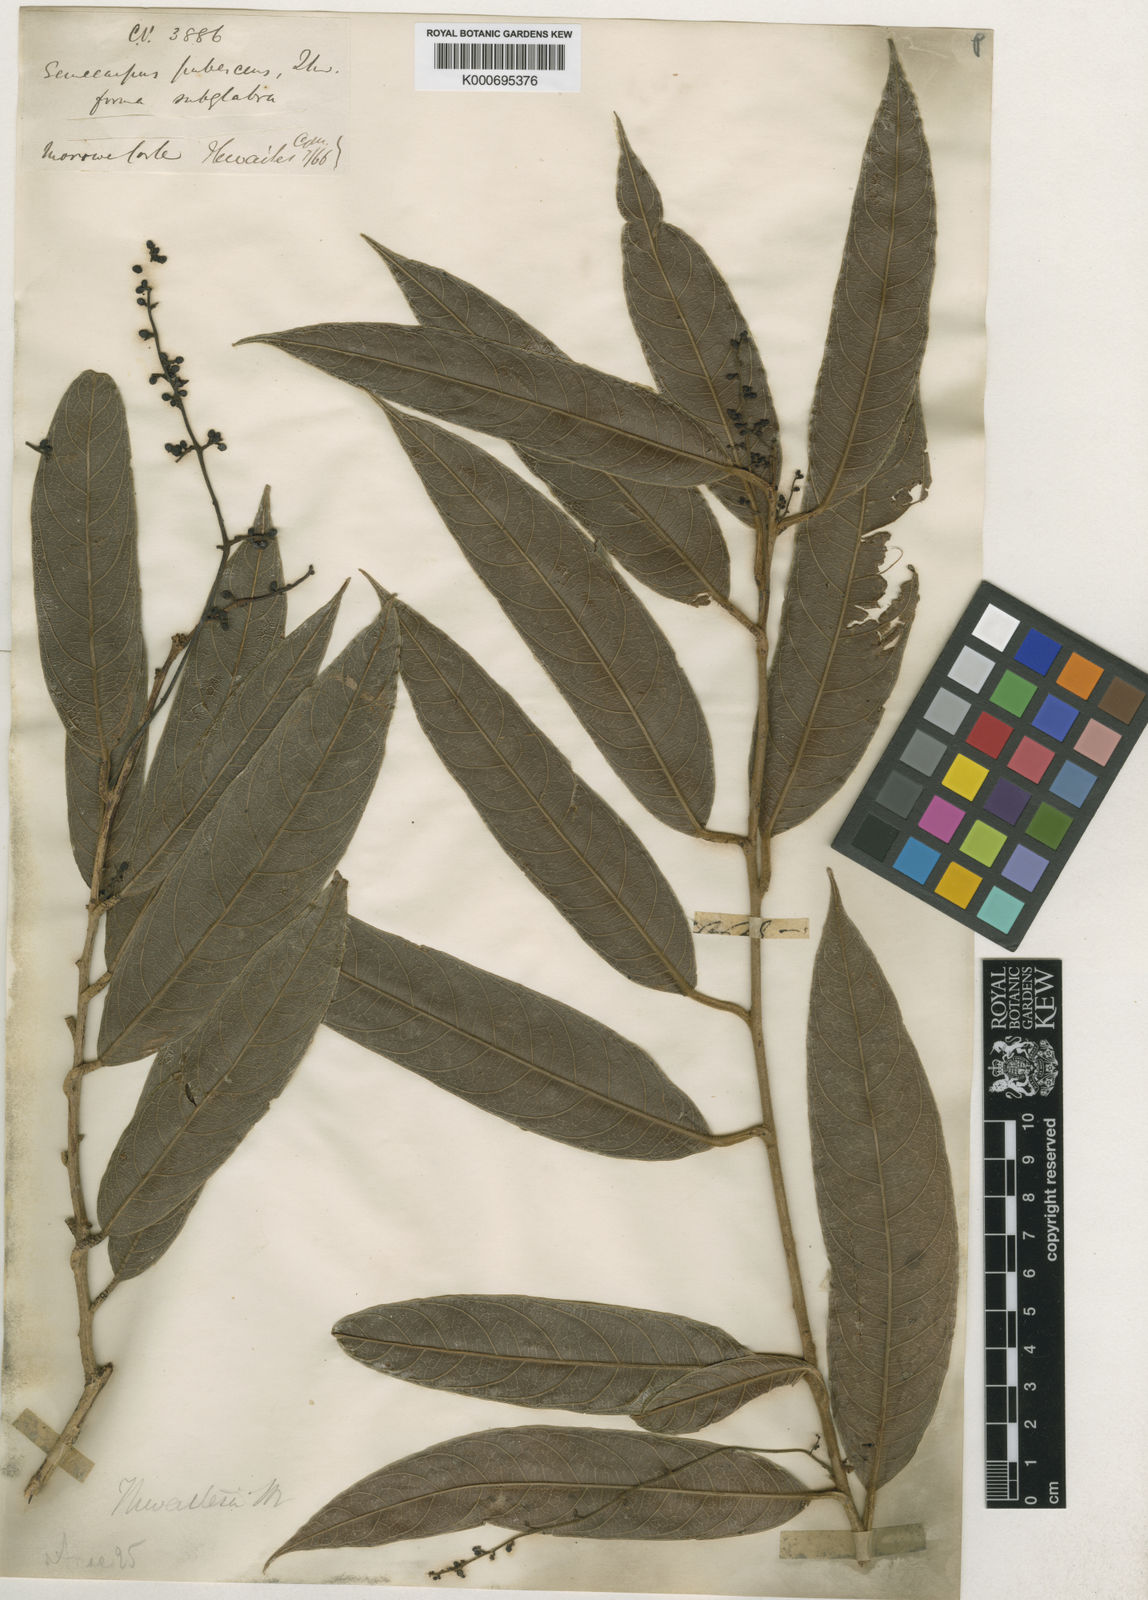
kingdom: Plantae
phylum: Tracheophyta
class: Magnoliopsida
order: Sapindales
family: Anacardiaceae
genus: Semecarpus
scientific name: Semecarpus pubescens
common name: Velvet badulla
